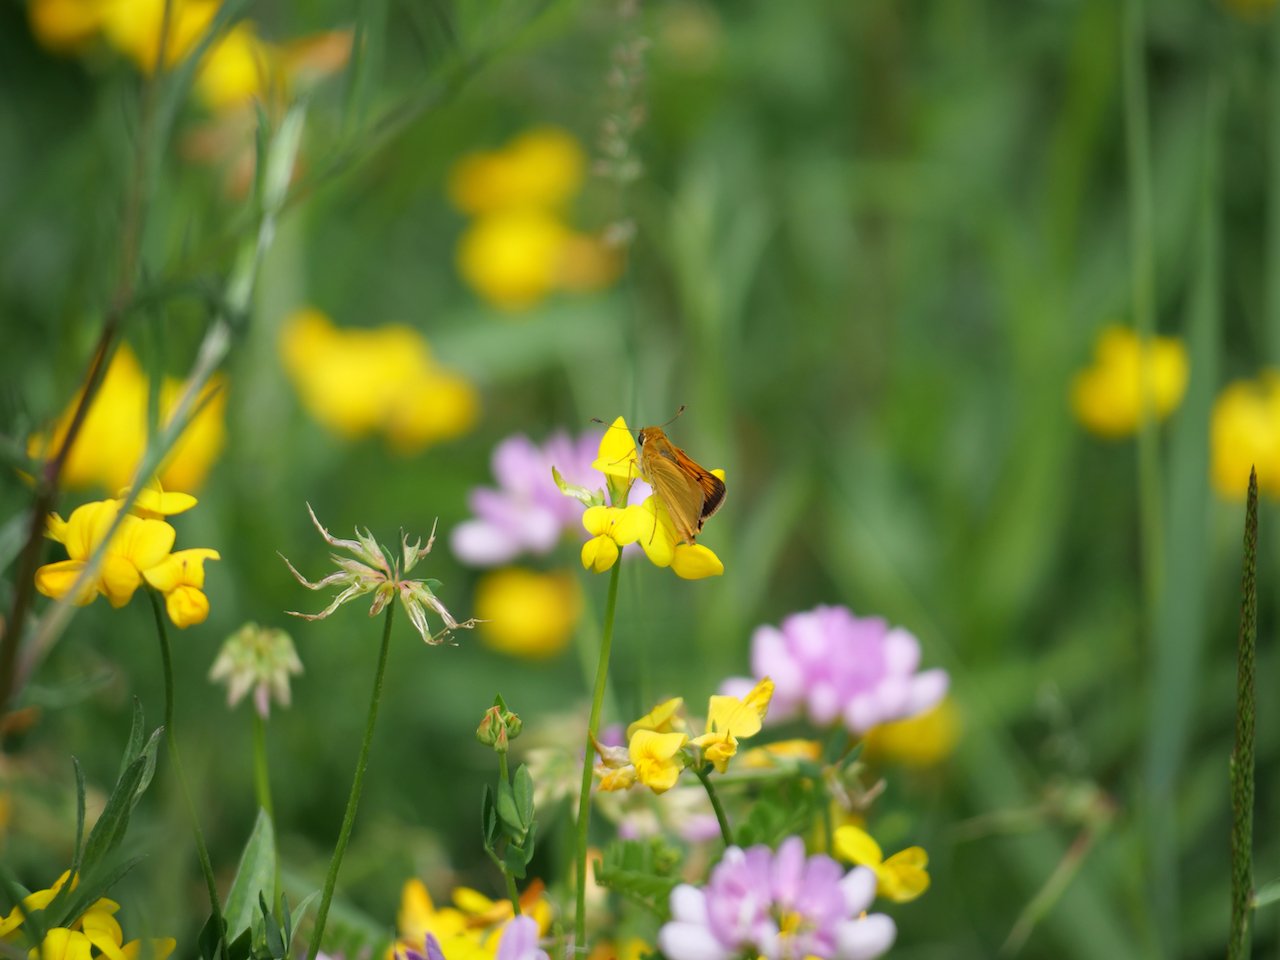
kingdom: Animalia
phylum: Arthropoda
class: Insecta
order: Lepidoptera
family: Hesperiidae
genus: Atrytone
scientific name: Atrytone delaware
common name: Delaware Skipper
